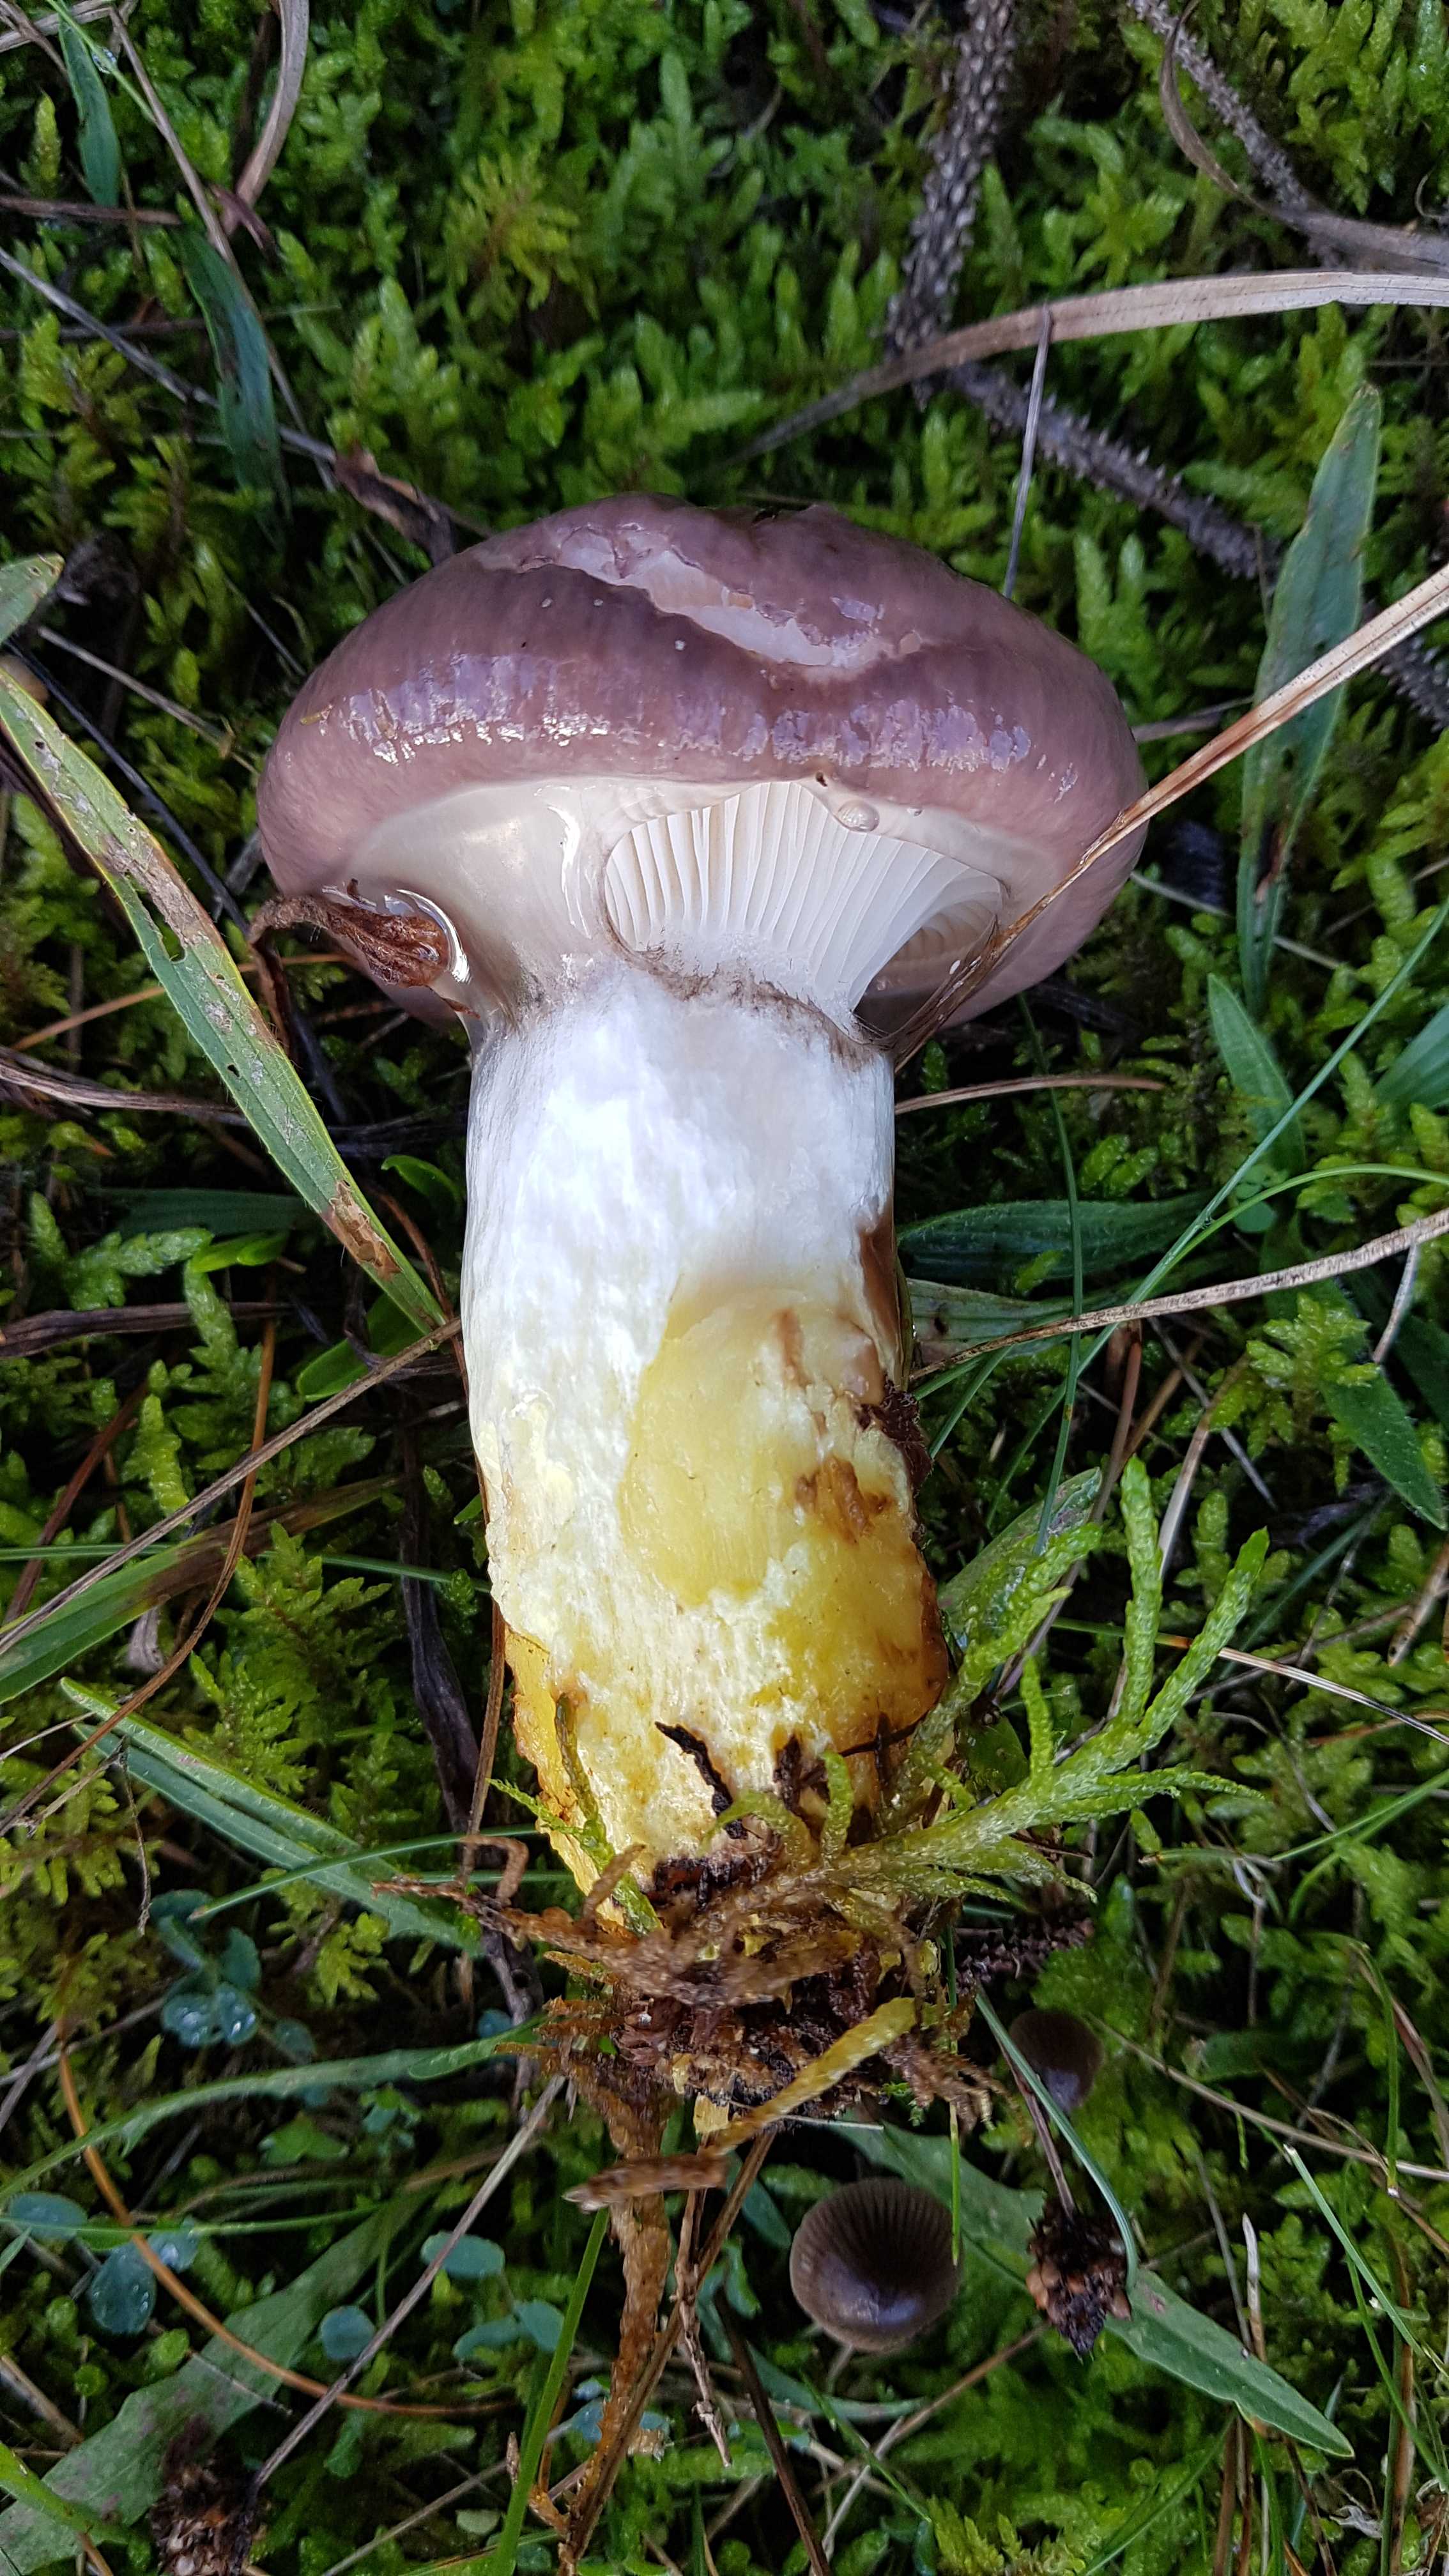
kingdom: Fungi
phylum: Basidiomycota
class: Agaricomycetes
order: Boletales
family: Gomphidiaceae
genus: Gomphidius
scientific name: Gomphidius glutinosus
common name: grå slimslør
